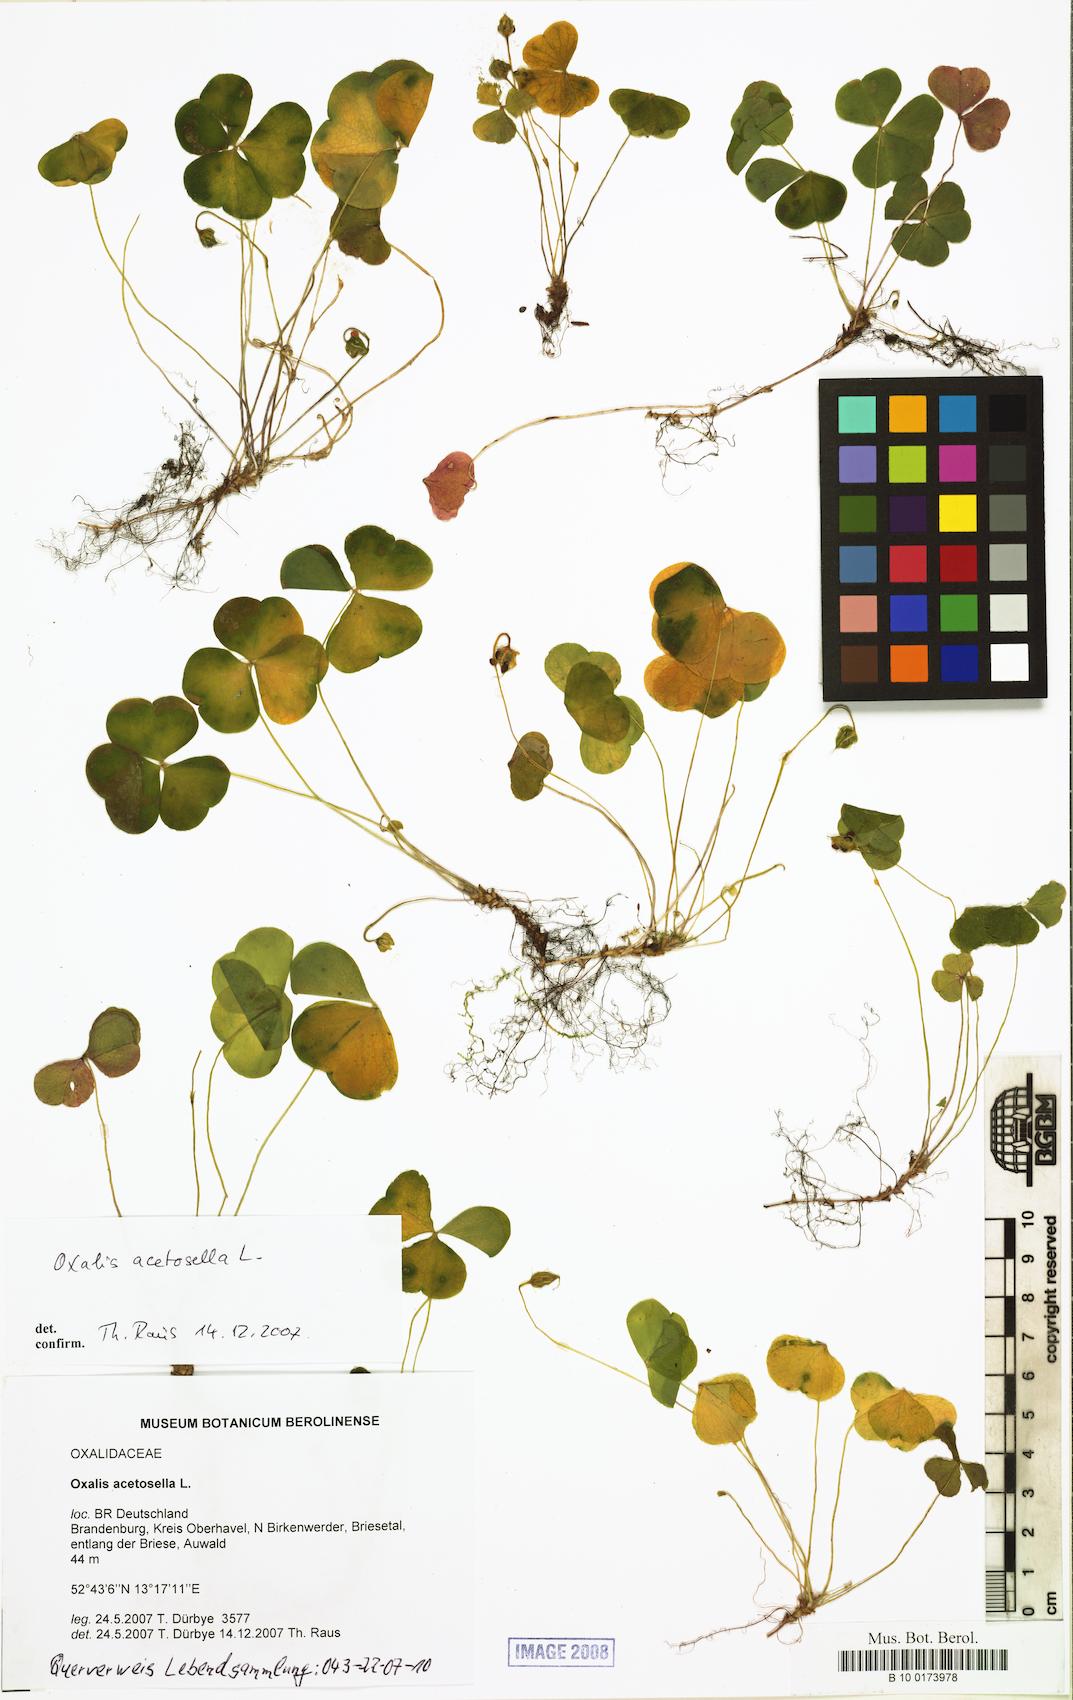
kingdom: Plantae
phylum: Tracheophyta
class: Magnoliopsida
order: Oxalidales
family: Oxalidaceae
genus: Oxalis
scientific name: Oxalis acetosella
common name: Wood-sorrel
